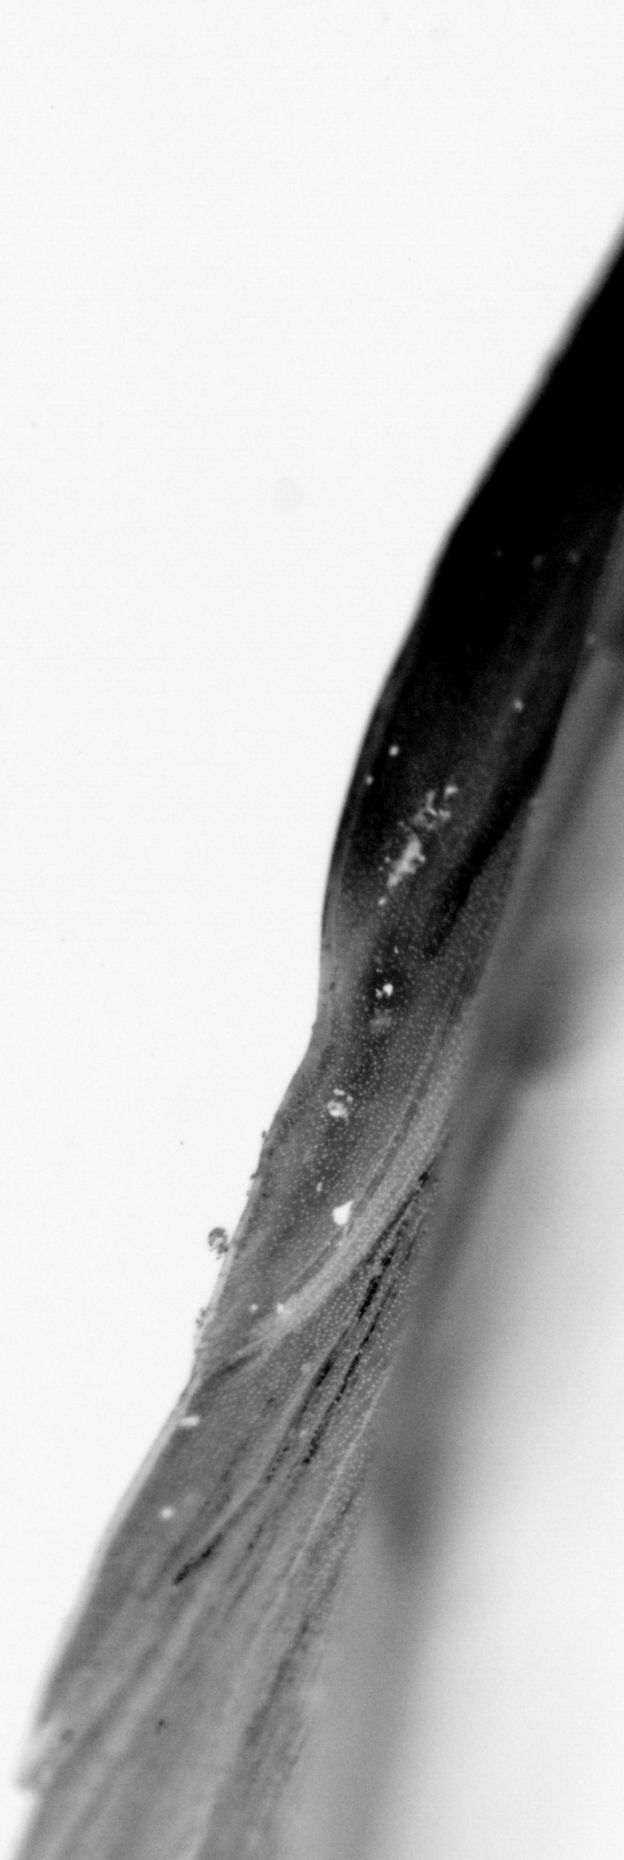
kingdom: Animalia
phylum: Chordata
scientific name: Chordata
